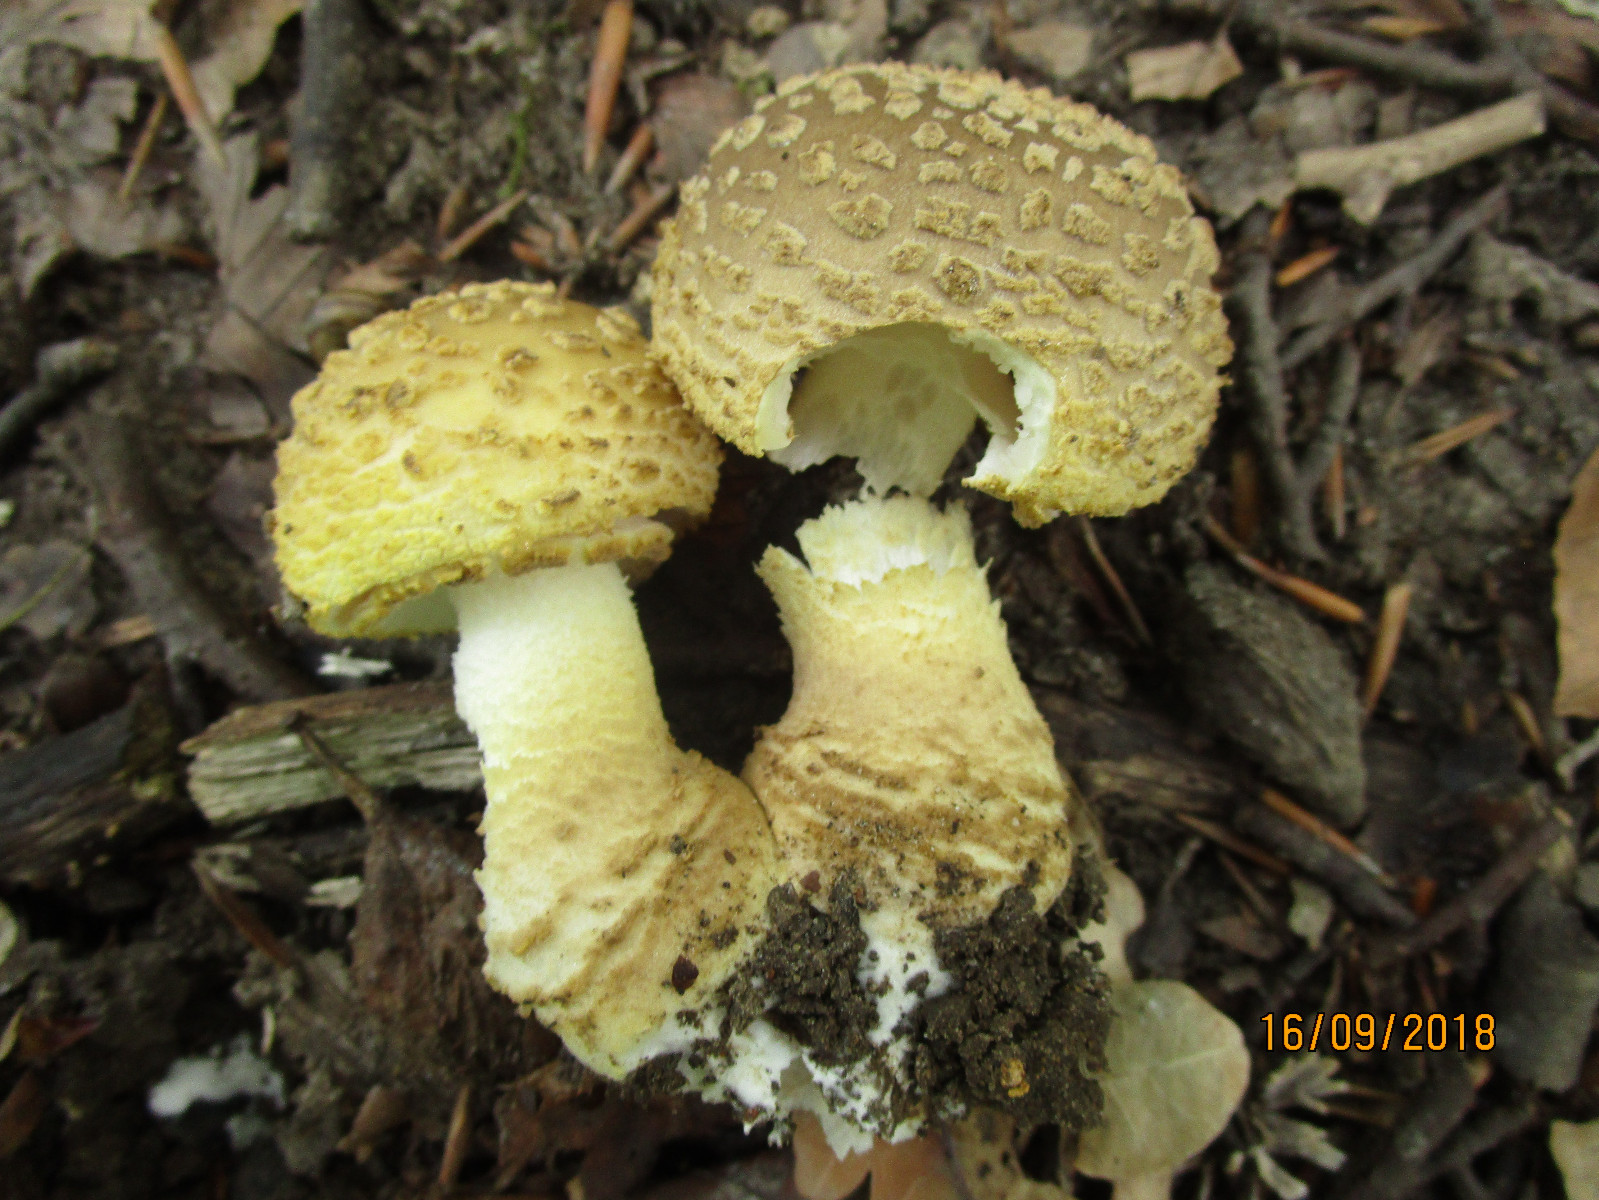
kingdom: Fungi
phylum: Basidiomycota
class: Agaricomycetes
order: Agaricales
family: Amanitaceae
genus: Amanita
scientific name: Amanita franchetii
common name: gulrandet fluesvamp
